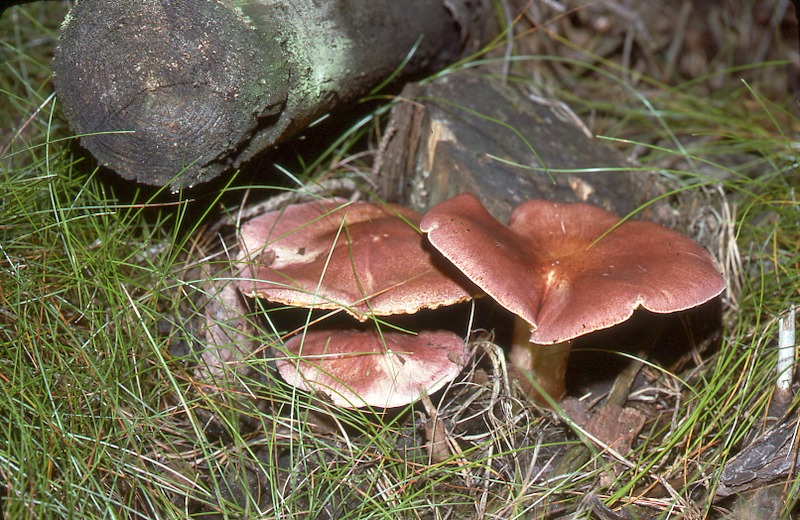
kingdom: Fungi
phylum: Basidiomycota
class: Agaricomycetes
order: Agaricales
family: Tricholomataceae
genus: Tricholomopsis
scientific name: Tricholomopsis rutilans
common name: Plums and custard
